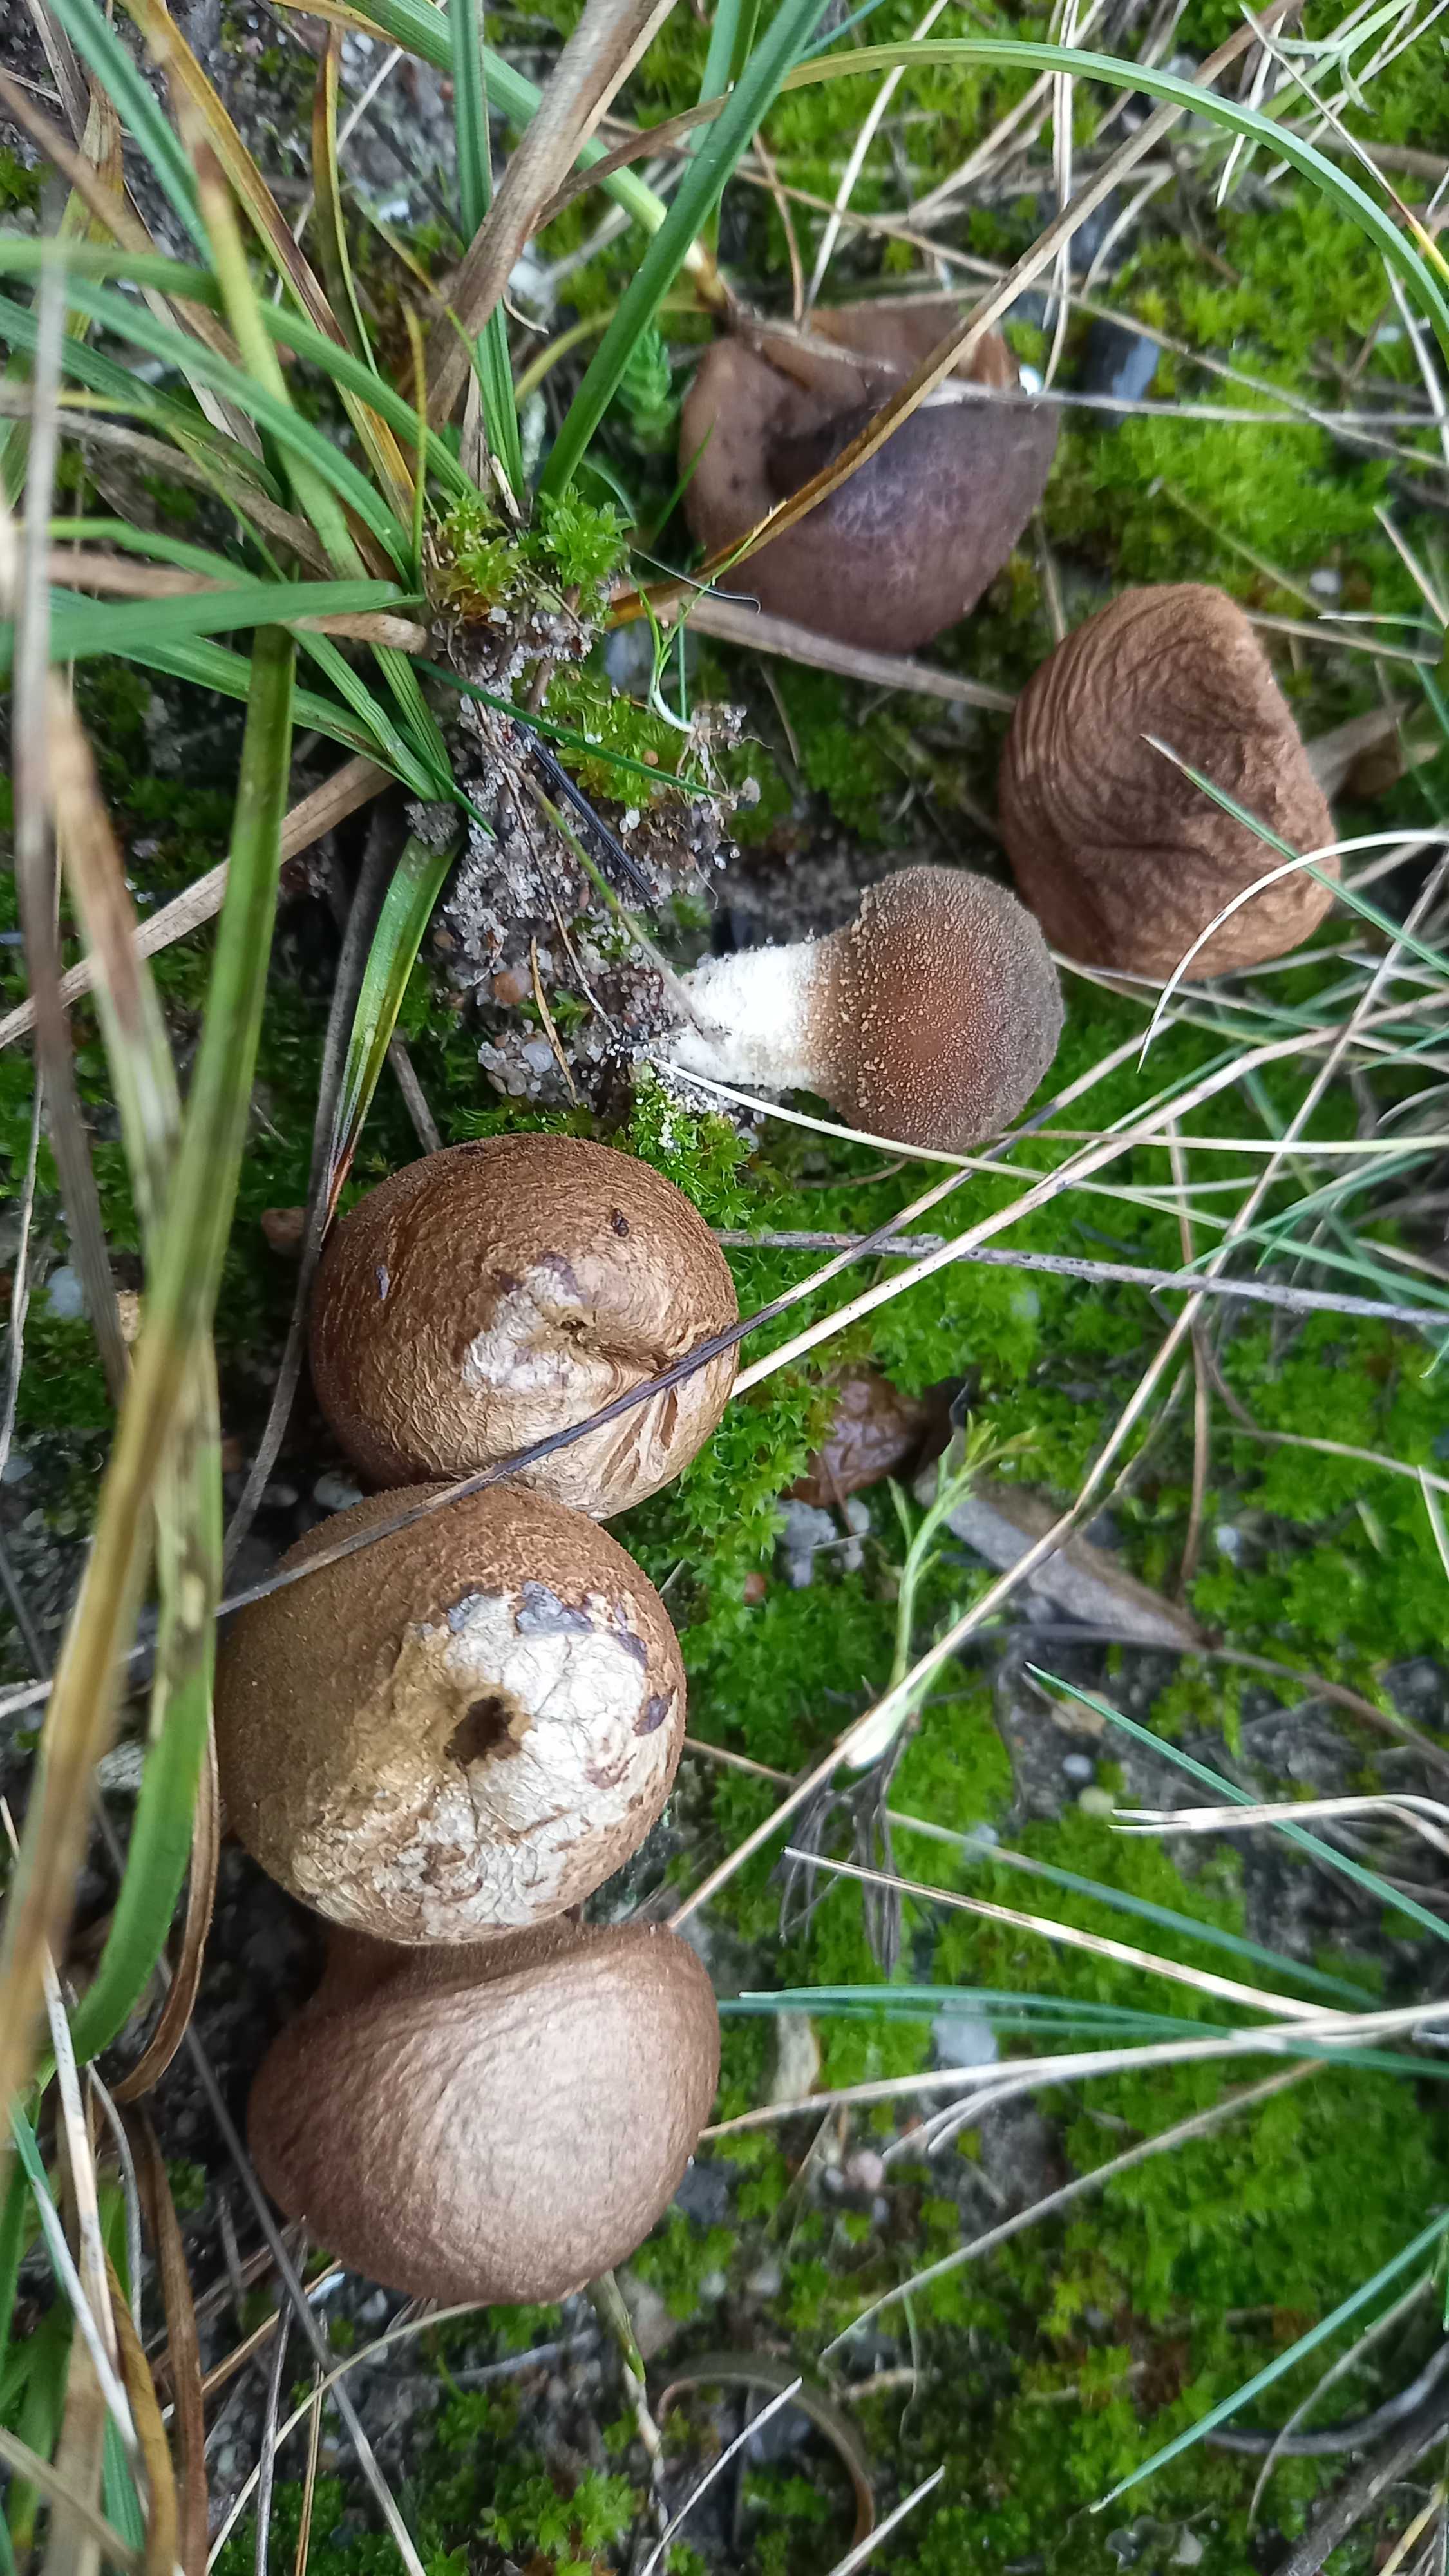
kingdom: Fungi
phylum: Basidiomycota
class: Agaricomycetes
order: Agaricales
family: Lycoperdaceae
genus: Lycoperdon
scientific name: Lycoperdon lividum
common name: mark-støvbold
